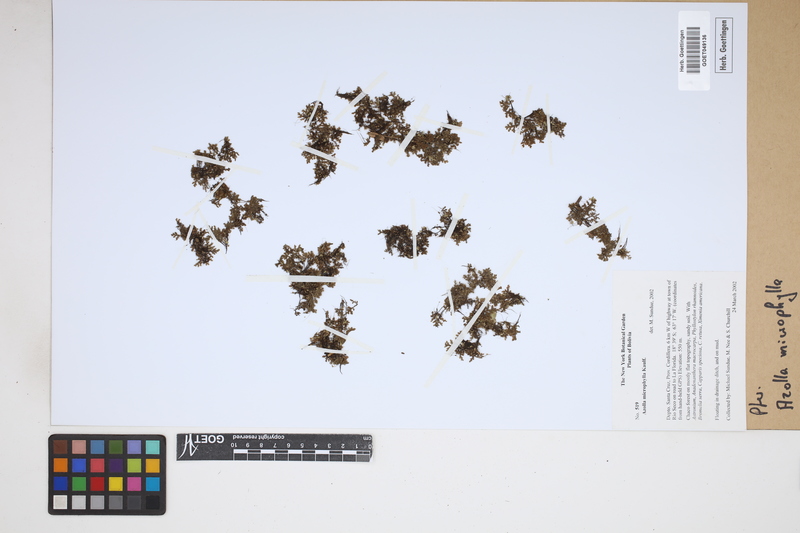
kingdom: Plantae
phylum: Tracheophyta
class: Polypodiopsida
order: Salviniales
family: Salviniaceae
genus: Azolla
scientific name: Azolla cristata
